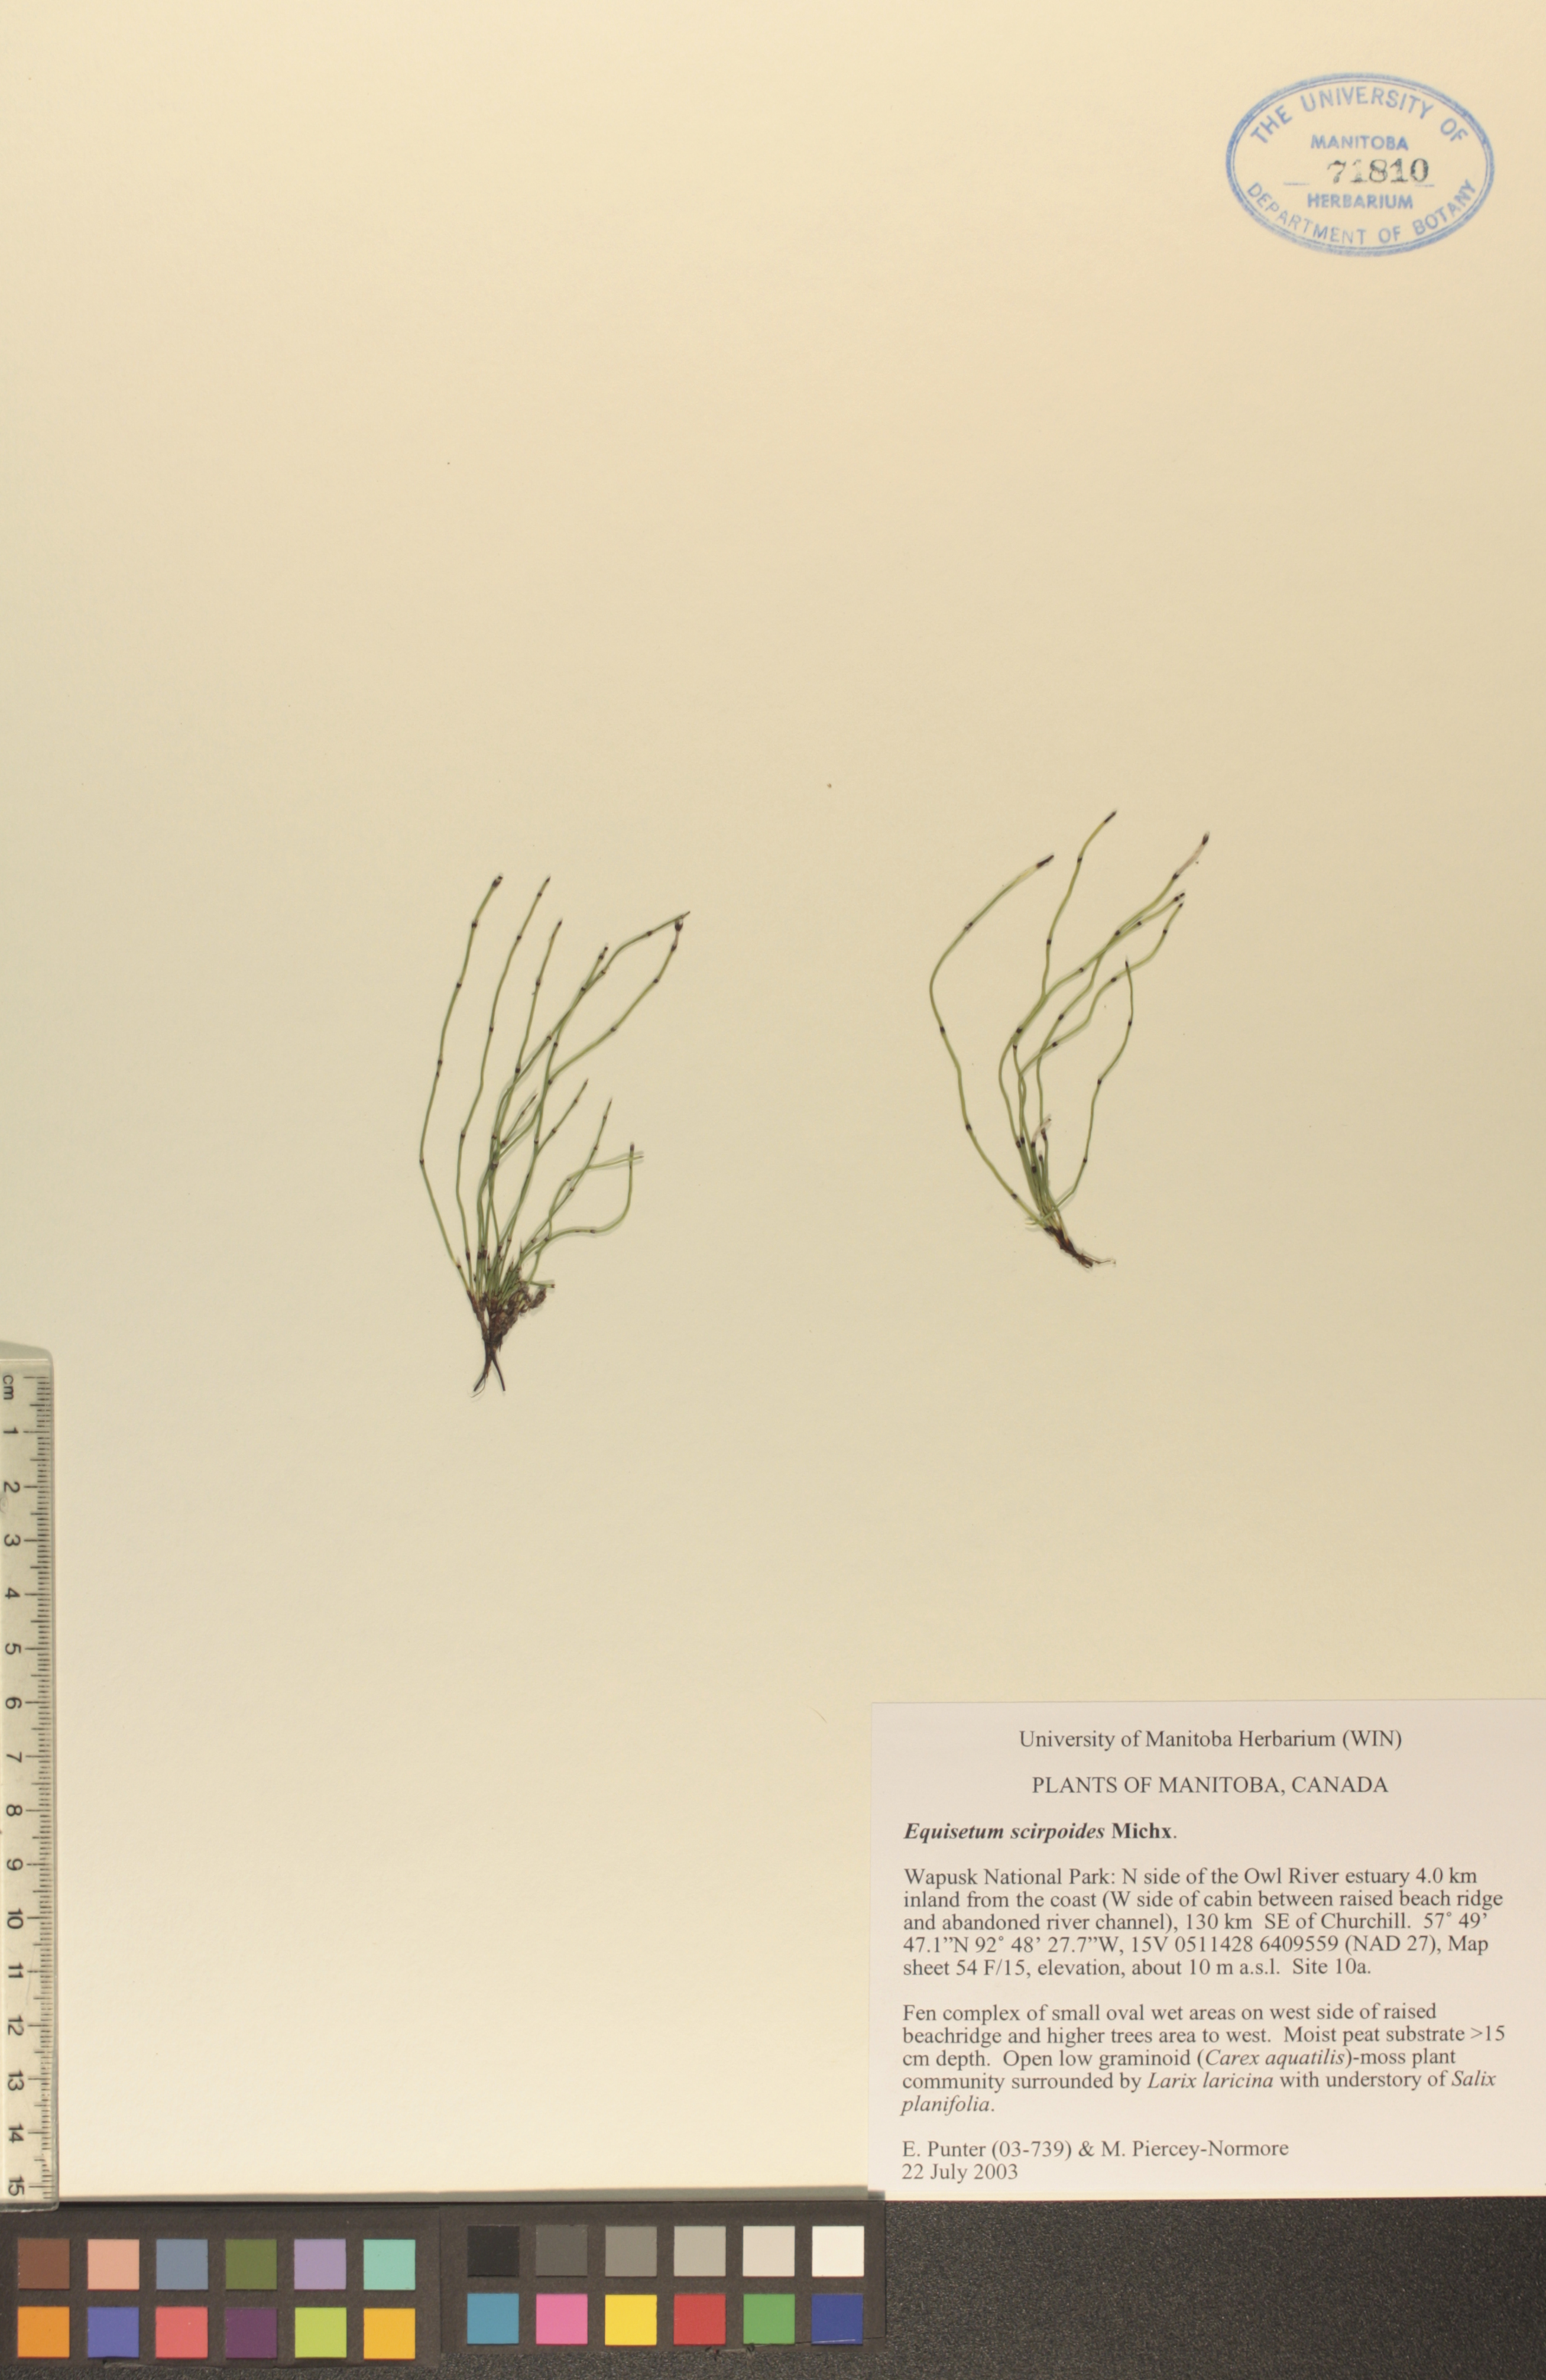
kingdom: Plantae
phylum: Tracheophyta
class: Polypodiopsida
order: Equisetales
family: Equisetaceae
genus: Equisetum
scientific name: Equisetum scirpoides
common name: Delicate horsetail
